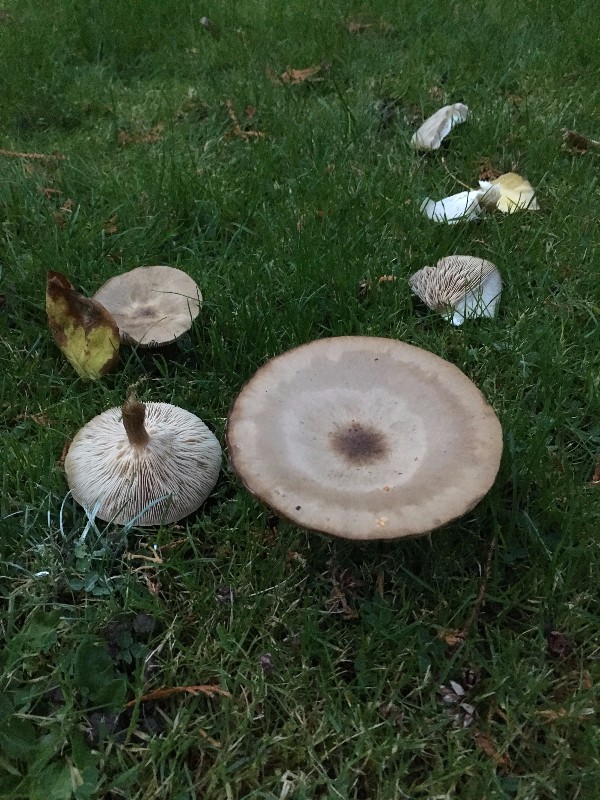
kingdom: Fungi
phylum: Basidiomycota
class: Agaricomycetes
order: Agaricales
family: Tricholomataceae
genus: Melanoleuca
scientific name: Melanoleuca
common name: munkehat
